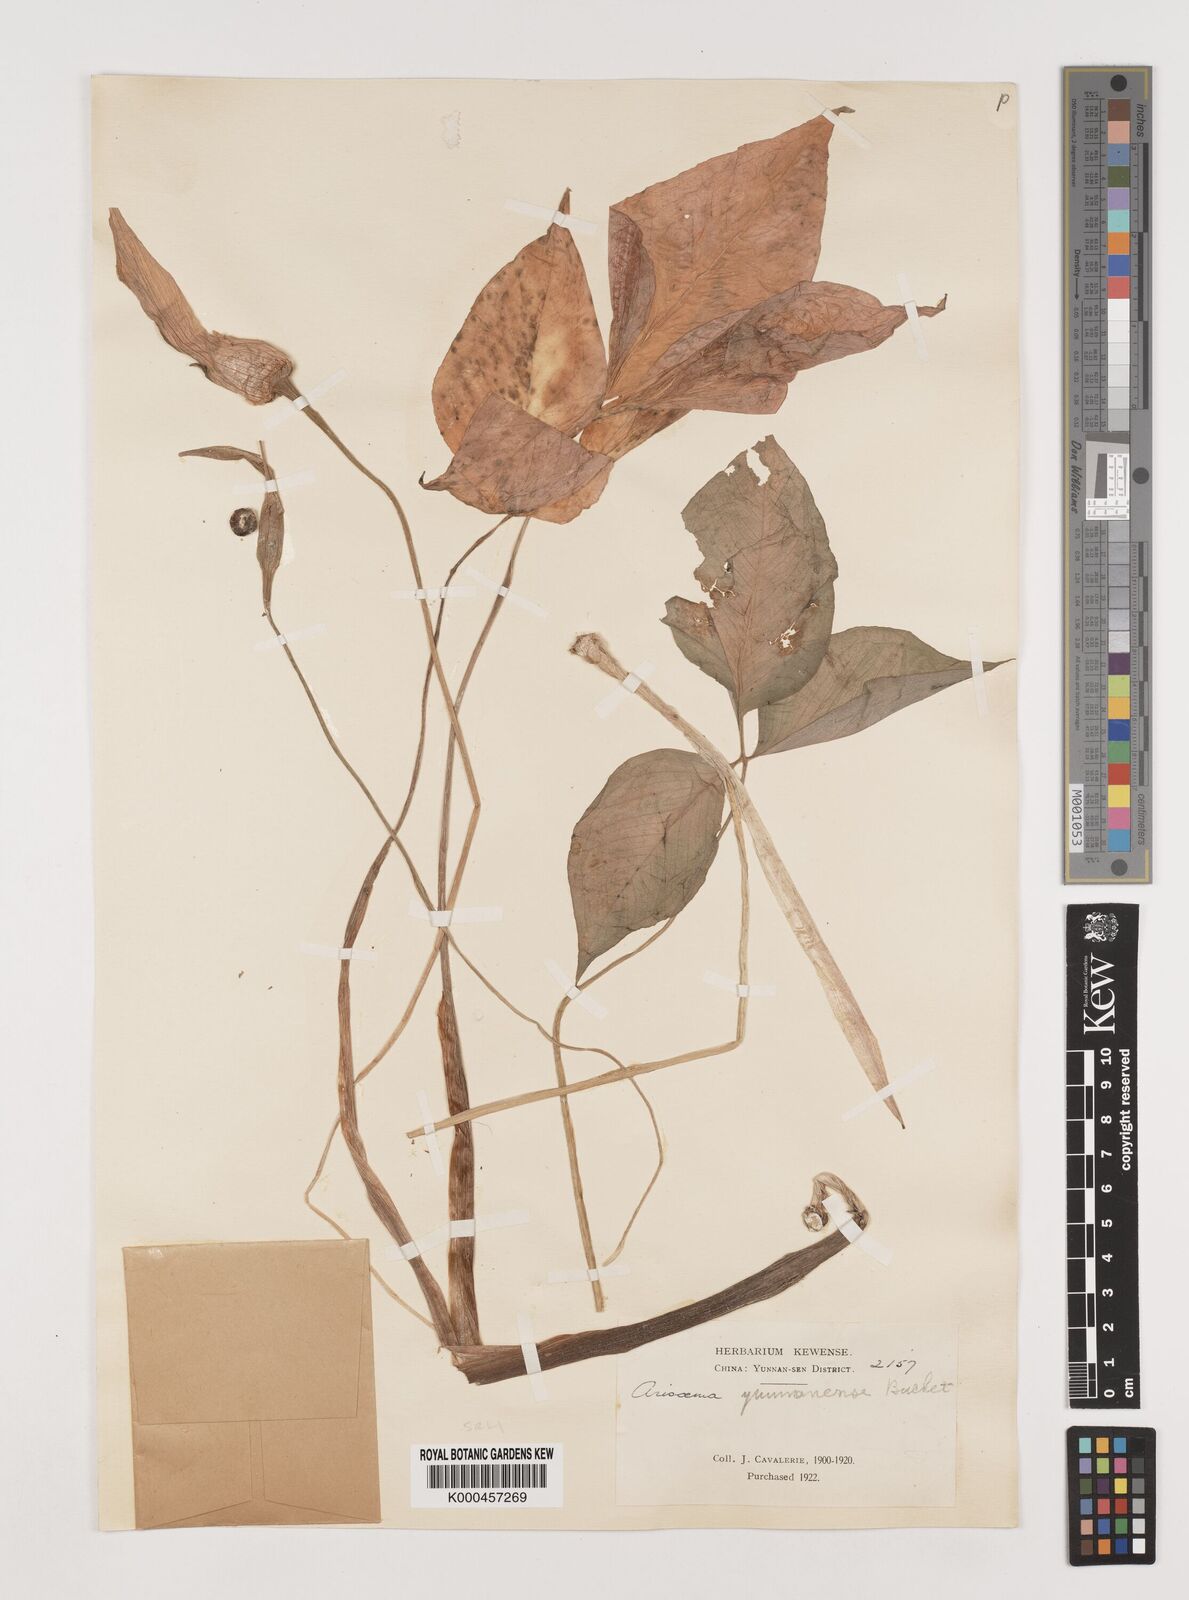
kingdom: Plantae
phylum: Tracheophyta
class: Liliopsida
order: Alismatales
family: Araceae
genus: Arisaema
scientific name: Arisaema yunnanense
